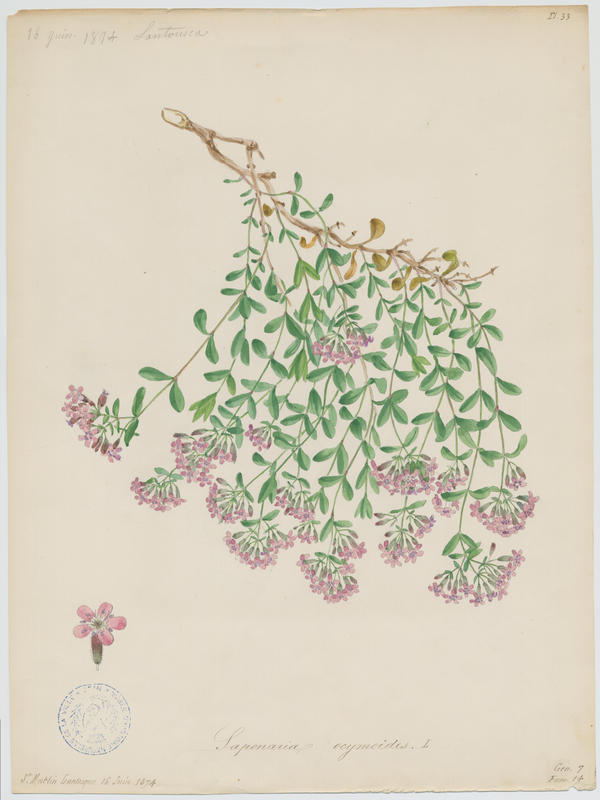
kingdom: Plantae
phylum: Tracheophyta
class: Magnoliopsida
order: Caryophyllales
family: Caryophyllaceae
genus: Saponaria
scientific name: Saponaria ocymoides
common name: Rock soapwort
